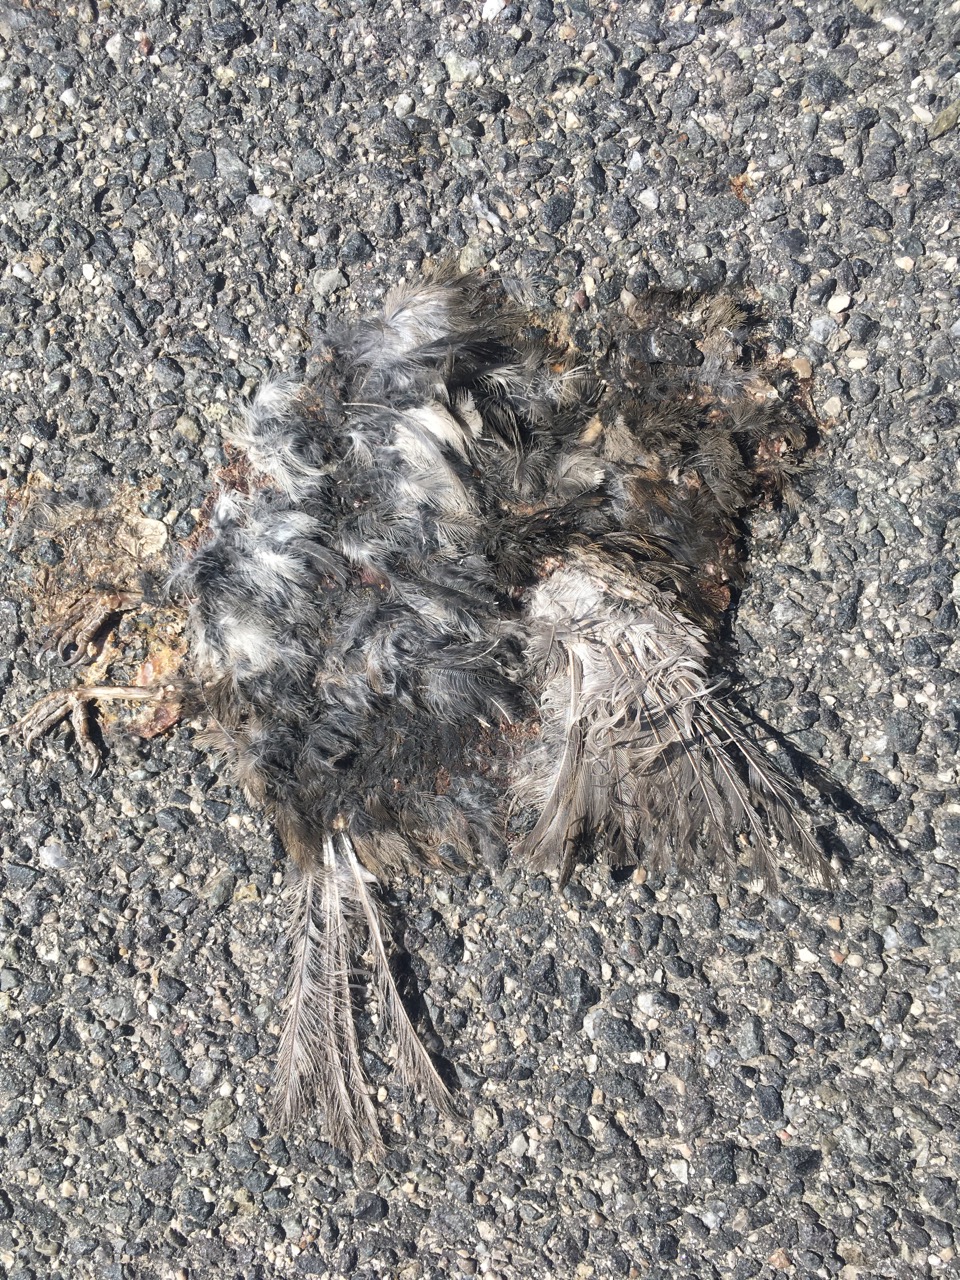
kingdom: Animalia
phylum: Chordata
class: Aves
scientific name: Aves
